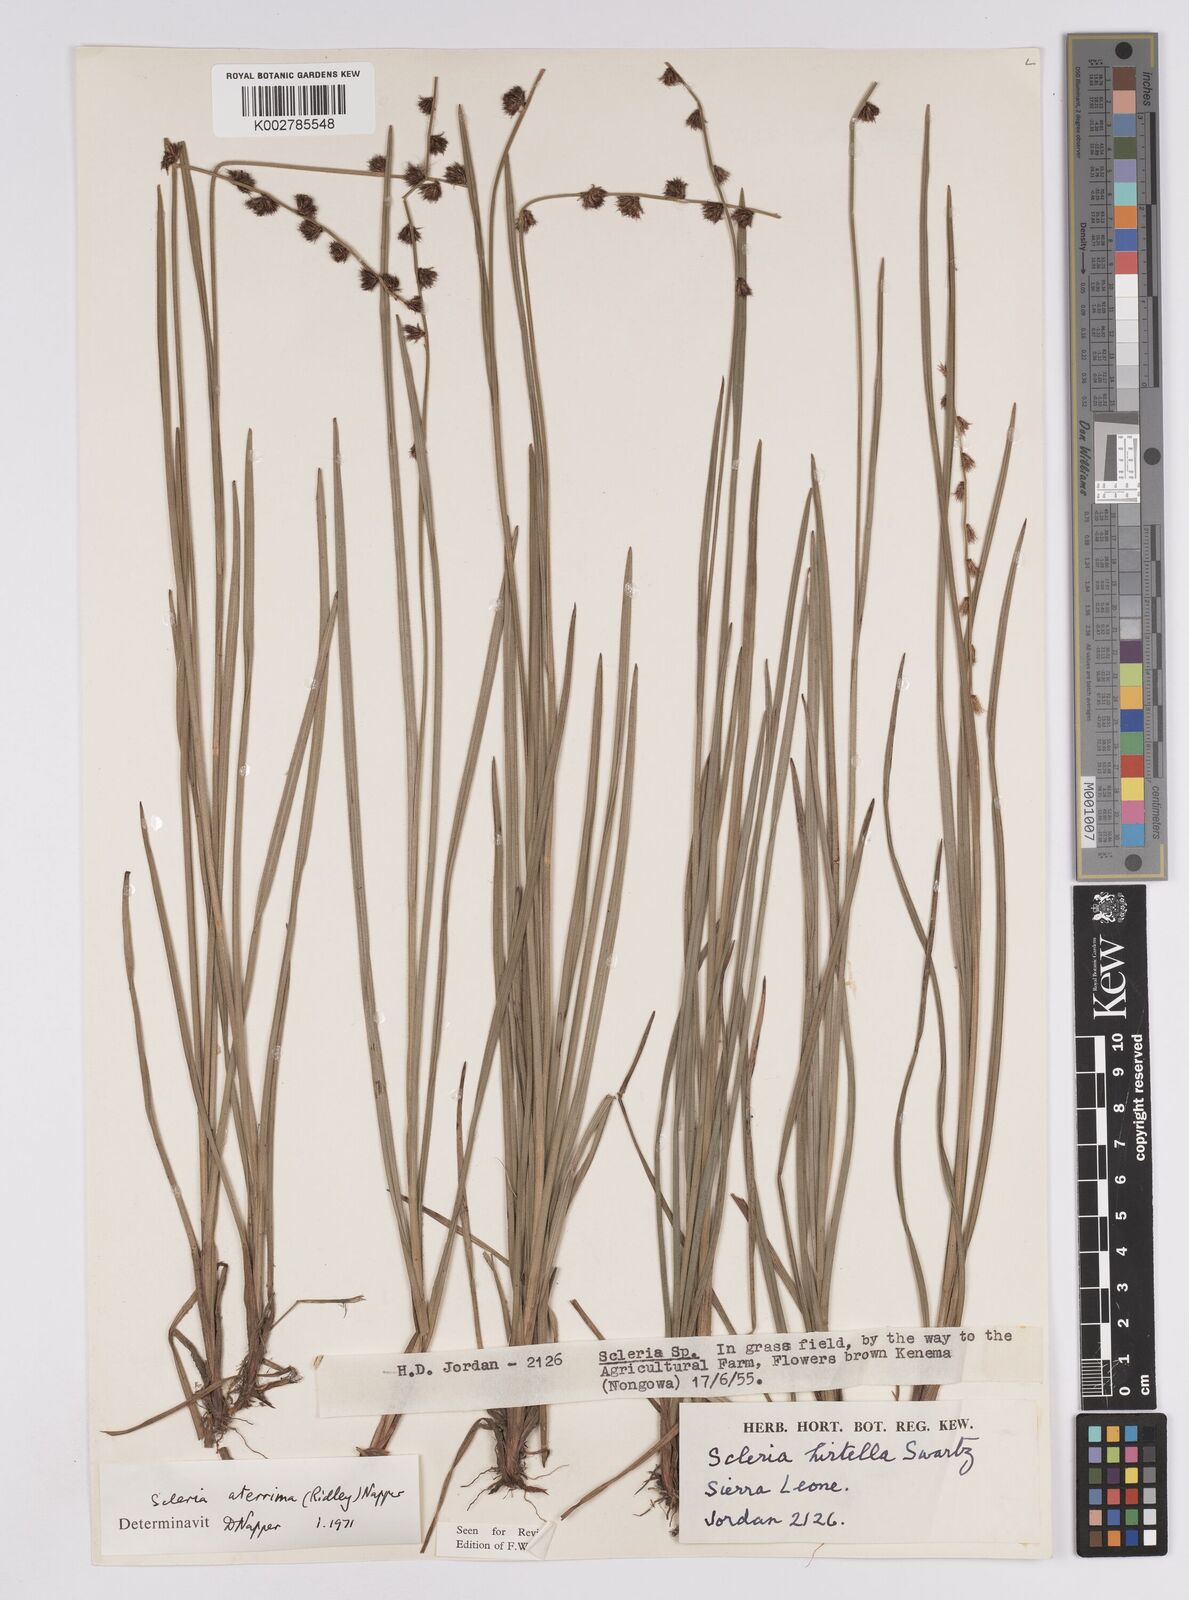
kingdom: Plantae
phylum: Tracheophyta
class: Liliopsida
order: Poales
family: Cyperaceae
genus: Scleria
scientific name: Scleria catophylla
